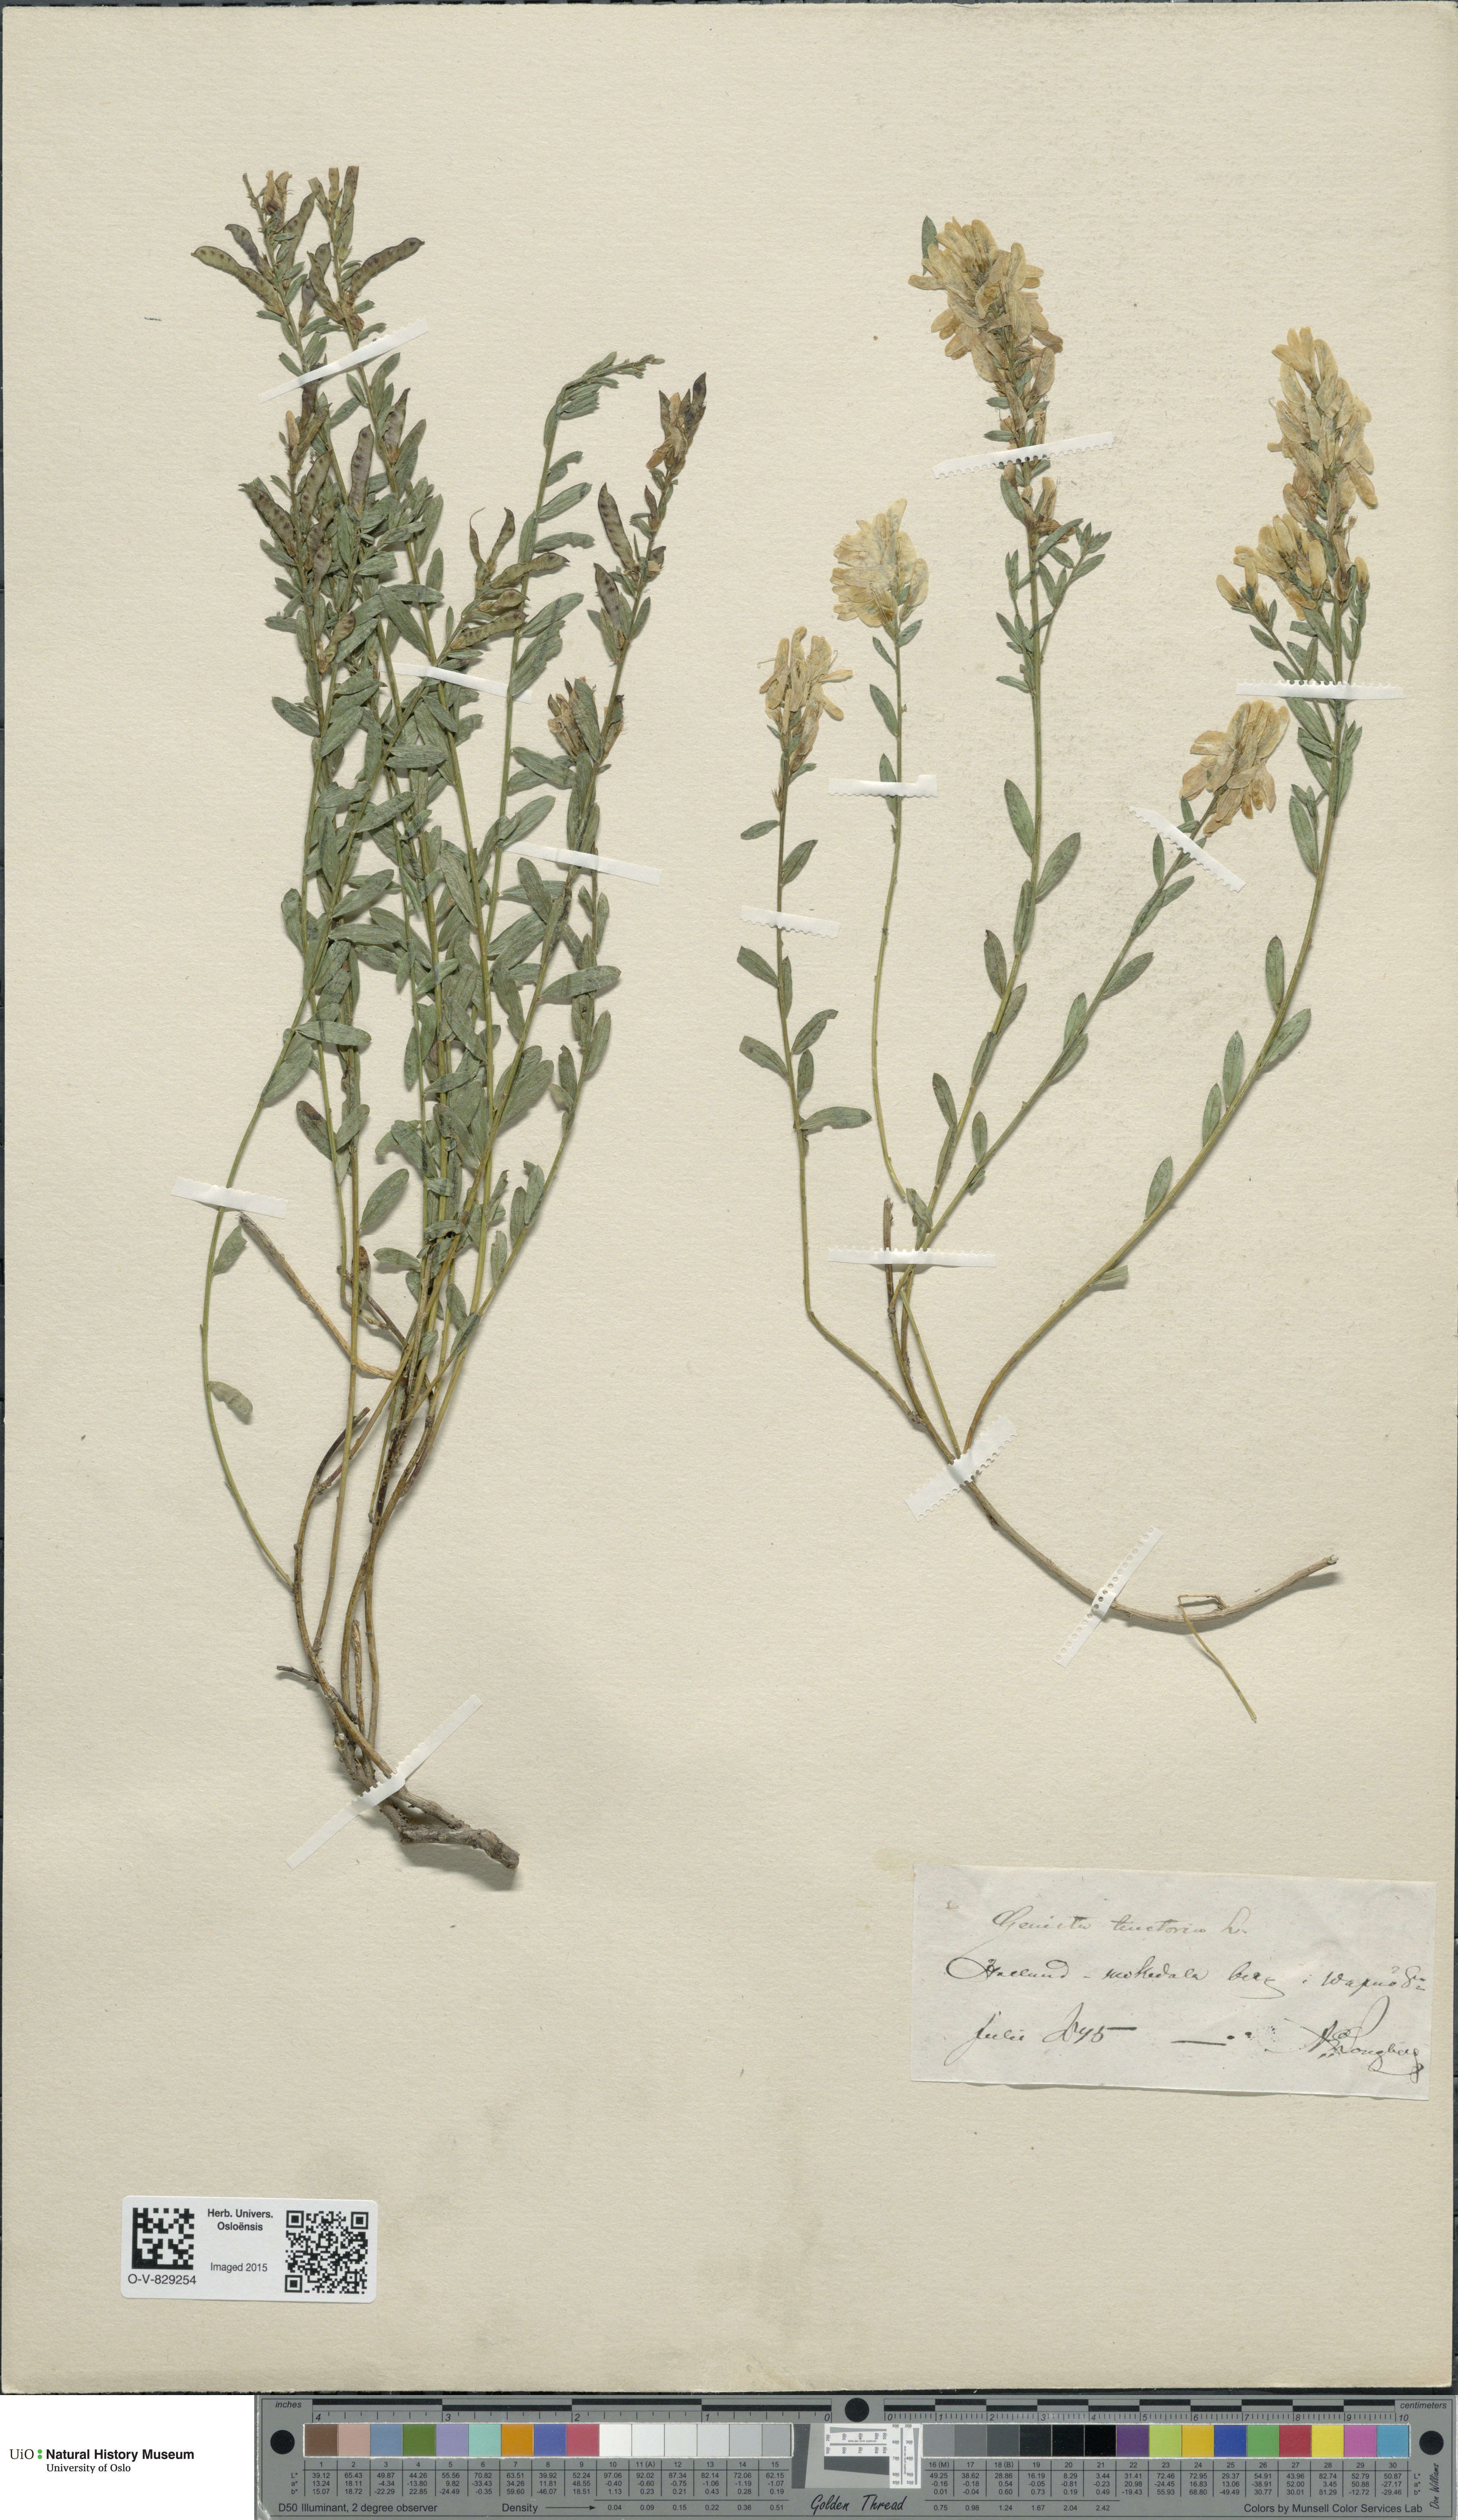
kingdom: Plantae
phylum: Tracheophyta
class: Magnoliopsida
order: Fabales
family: Fabaceae
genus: Genista
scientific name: Genista tinctoria
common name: Dyer's greenweed
